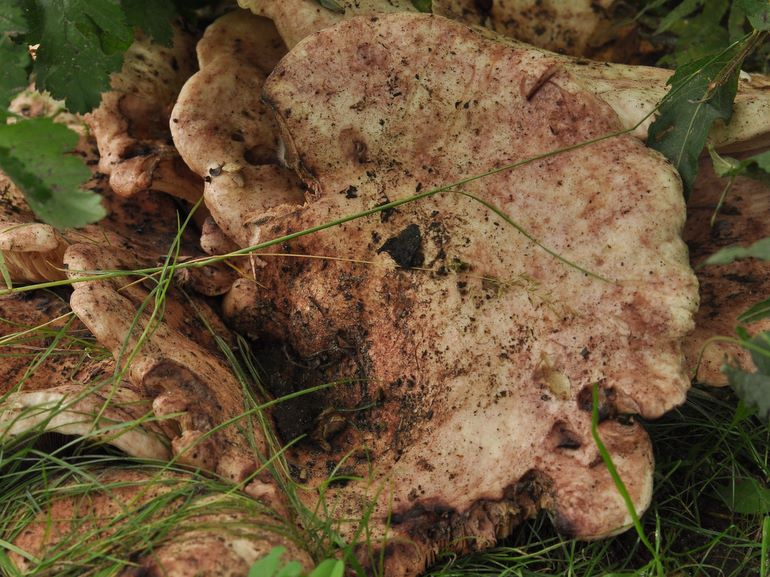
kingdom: Fungi
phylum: Basidiomycota
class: Agaricomycetes
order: Russulales
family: Russulaceae
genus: Lactarius
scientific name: Lactarius controversus
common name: rosabladet mælkehat
